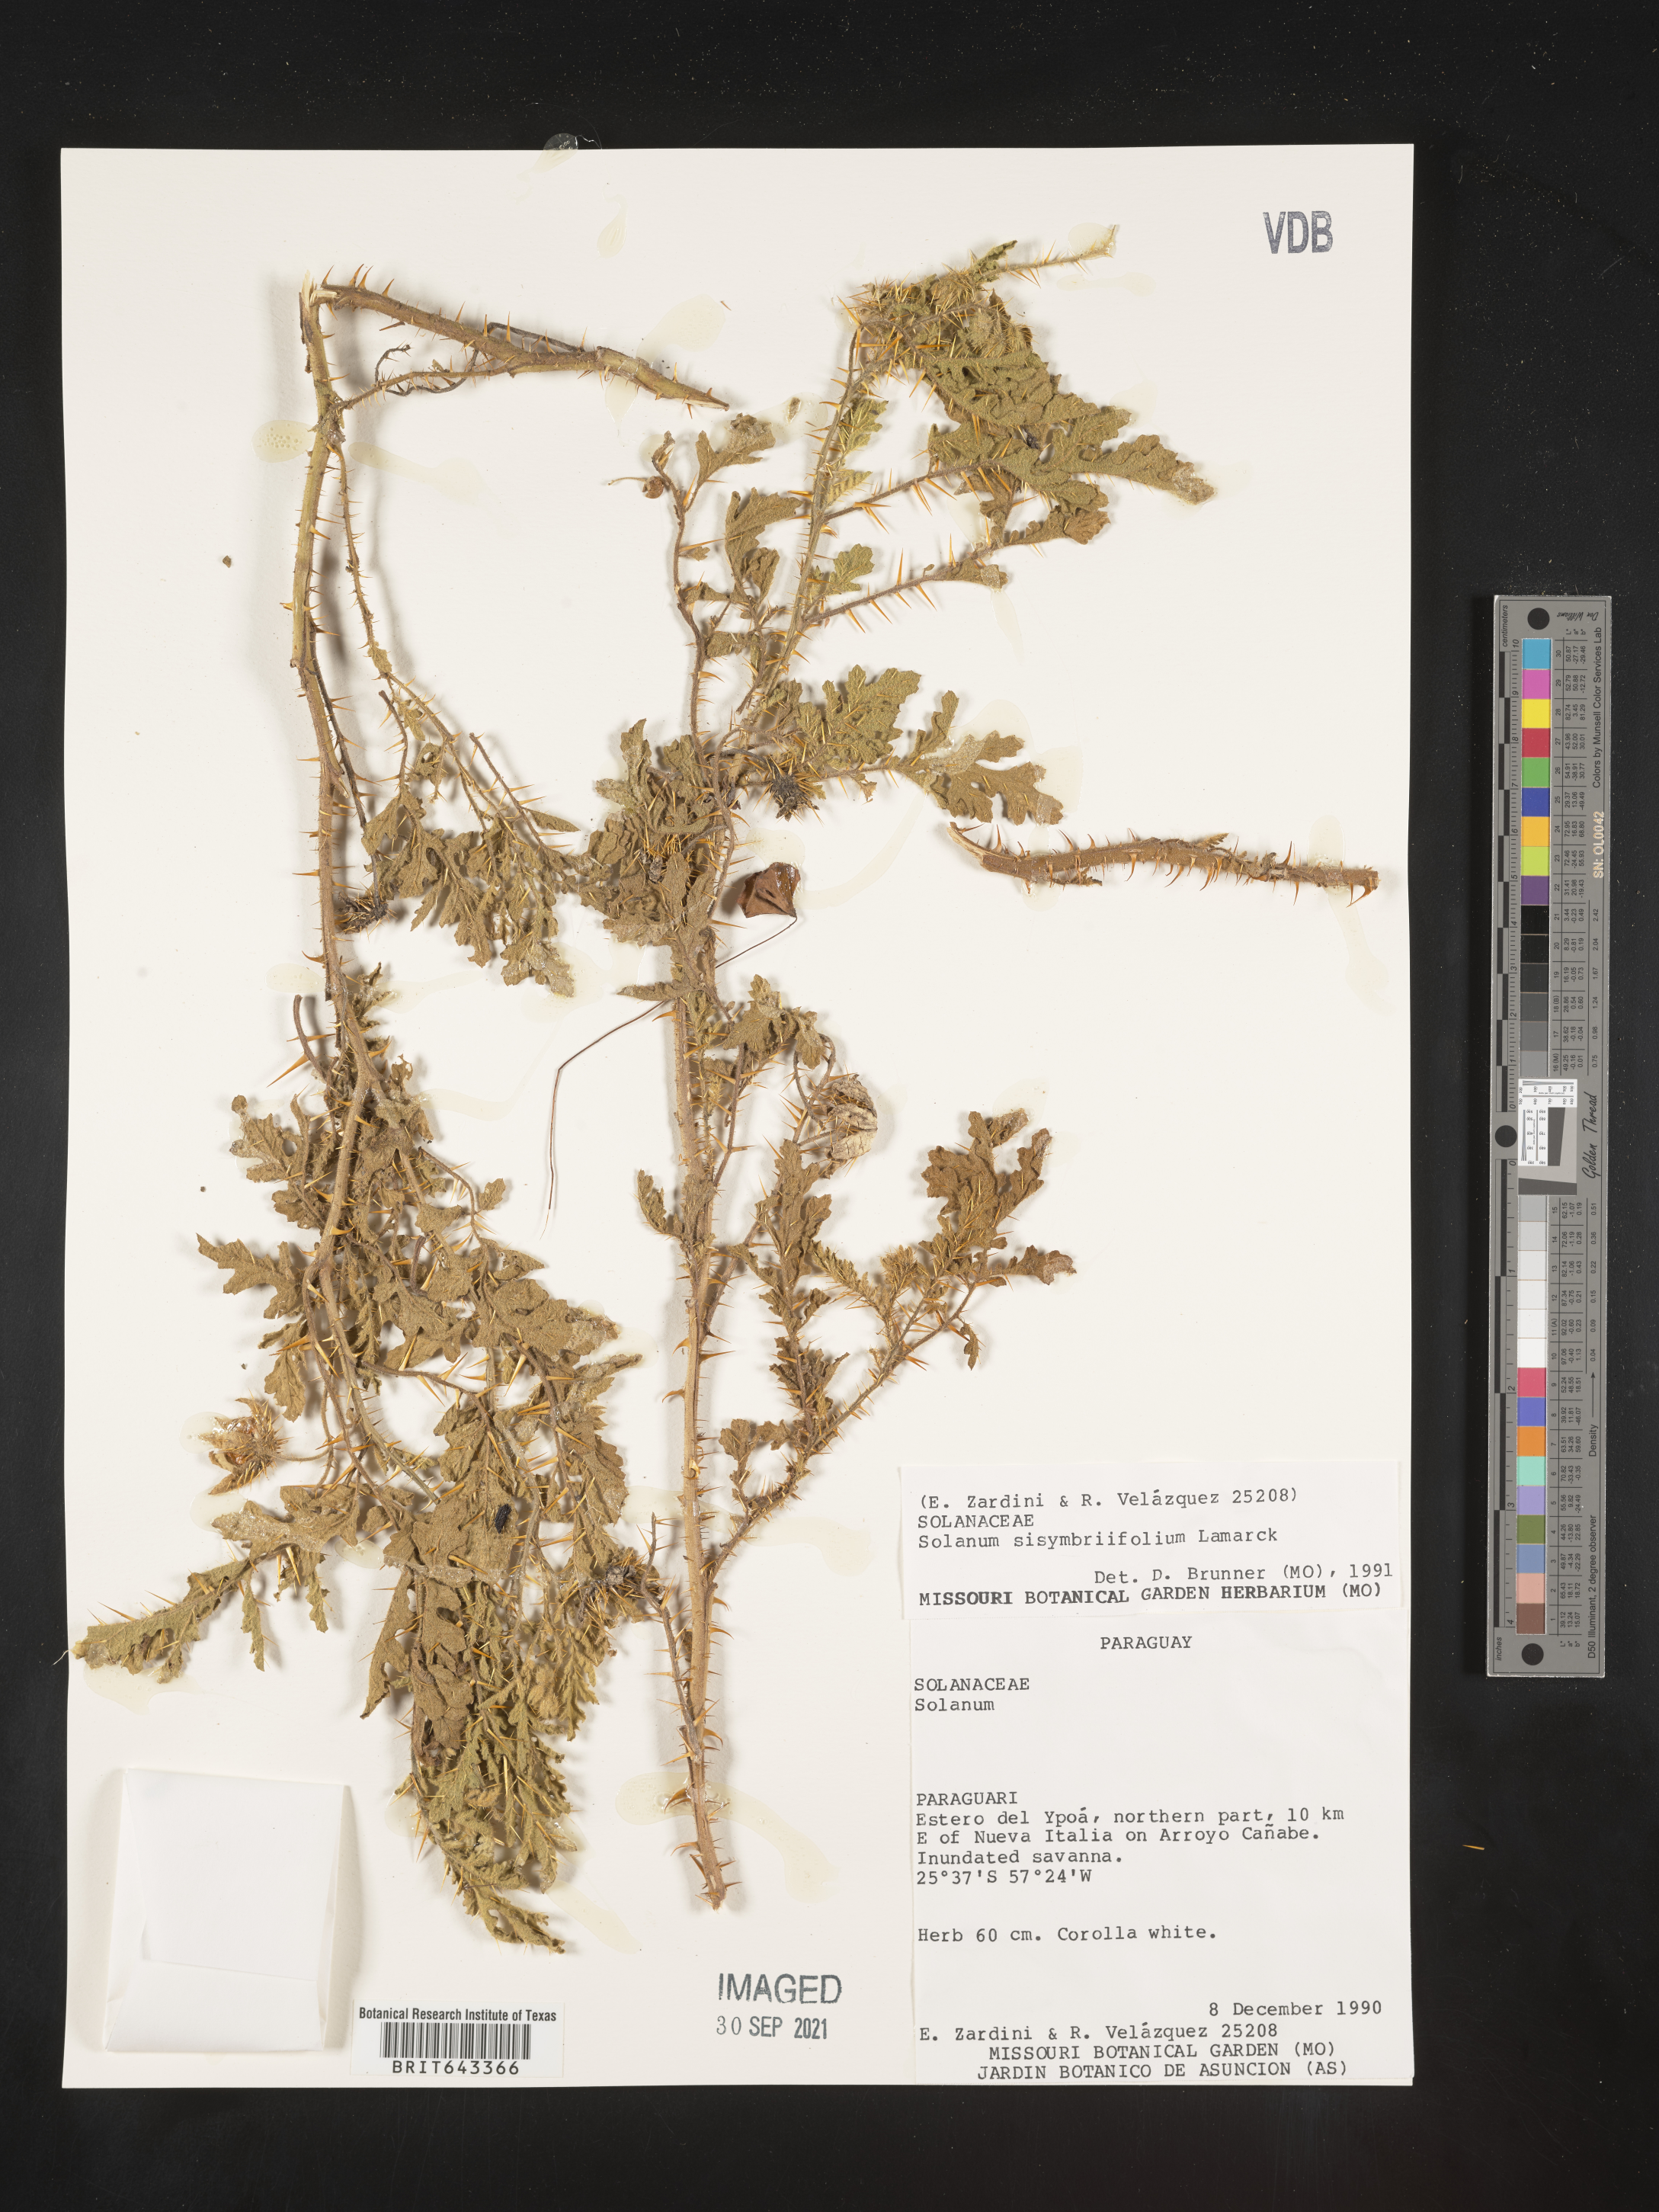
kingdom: Plantae
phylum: Tracheophyta
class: Magnoliopsida
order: Solanales
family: Solanaceae
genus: Solanum
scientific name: Solanum
